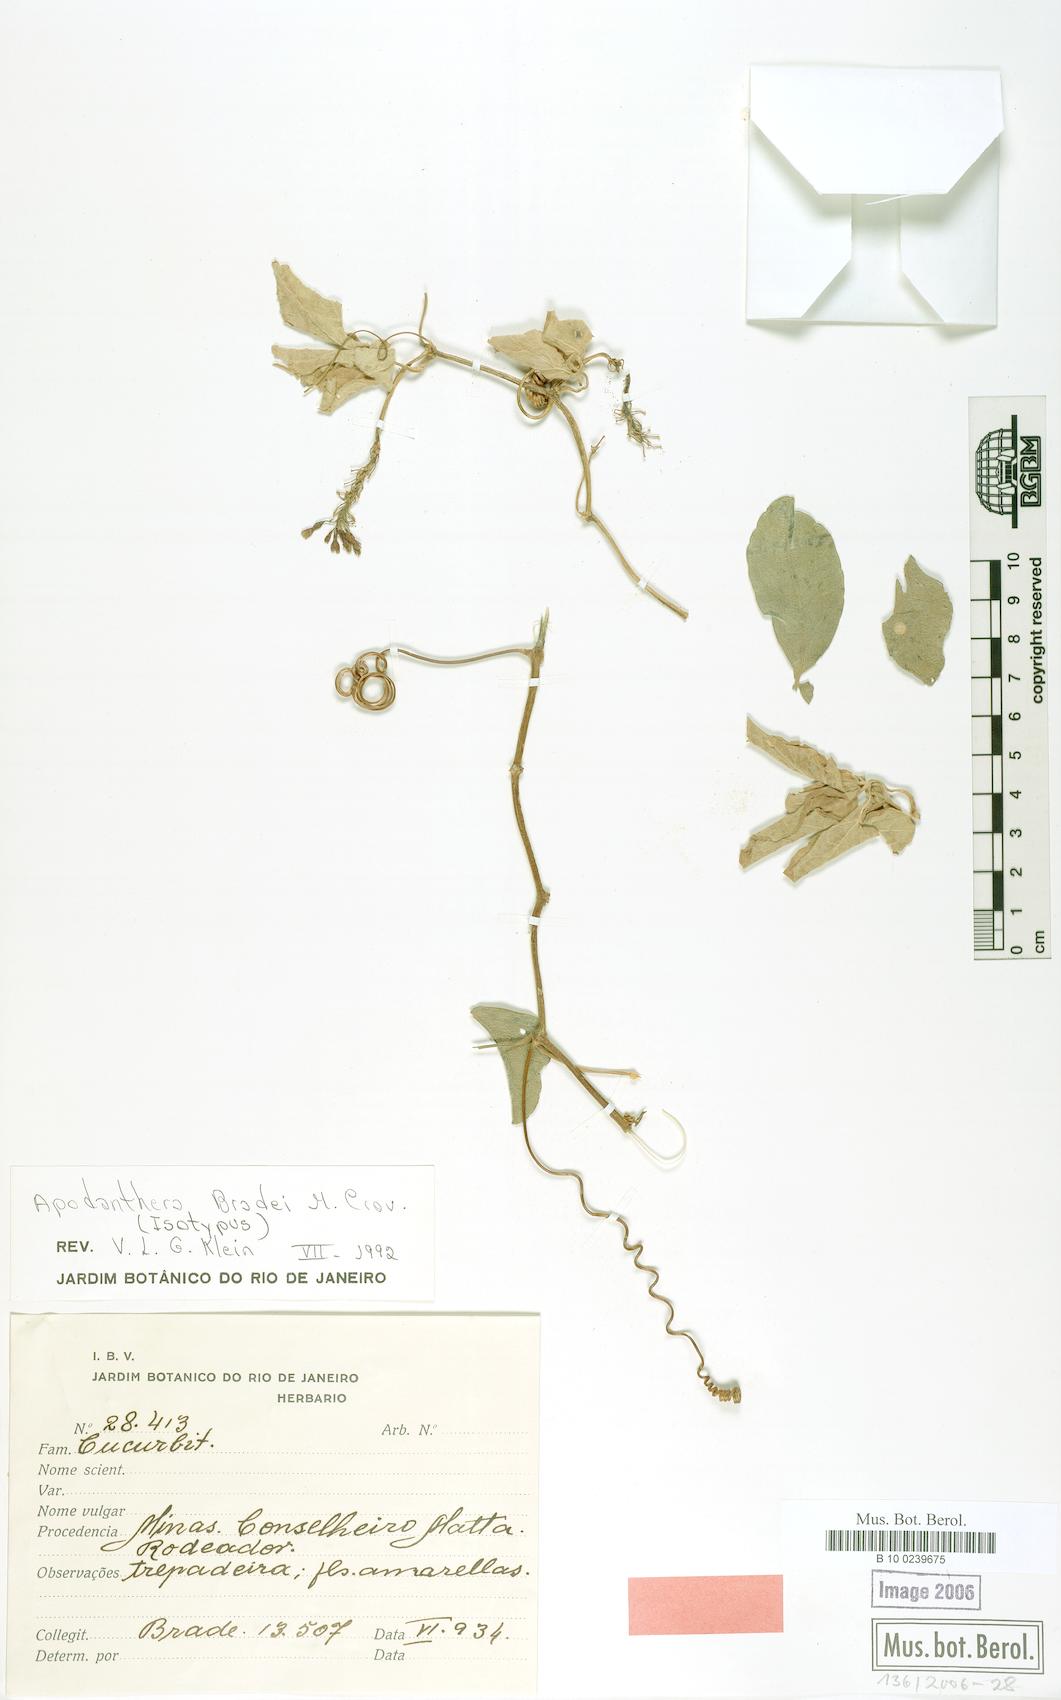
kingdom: Plantae
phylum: Tracheophyta
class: Magnoliopsida
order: Cucurbitales
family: Cucurbitaceae
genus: Apodanthera
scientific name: Apodanthera bradei
